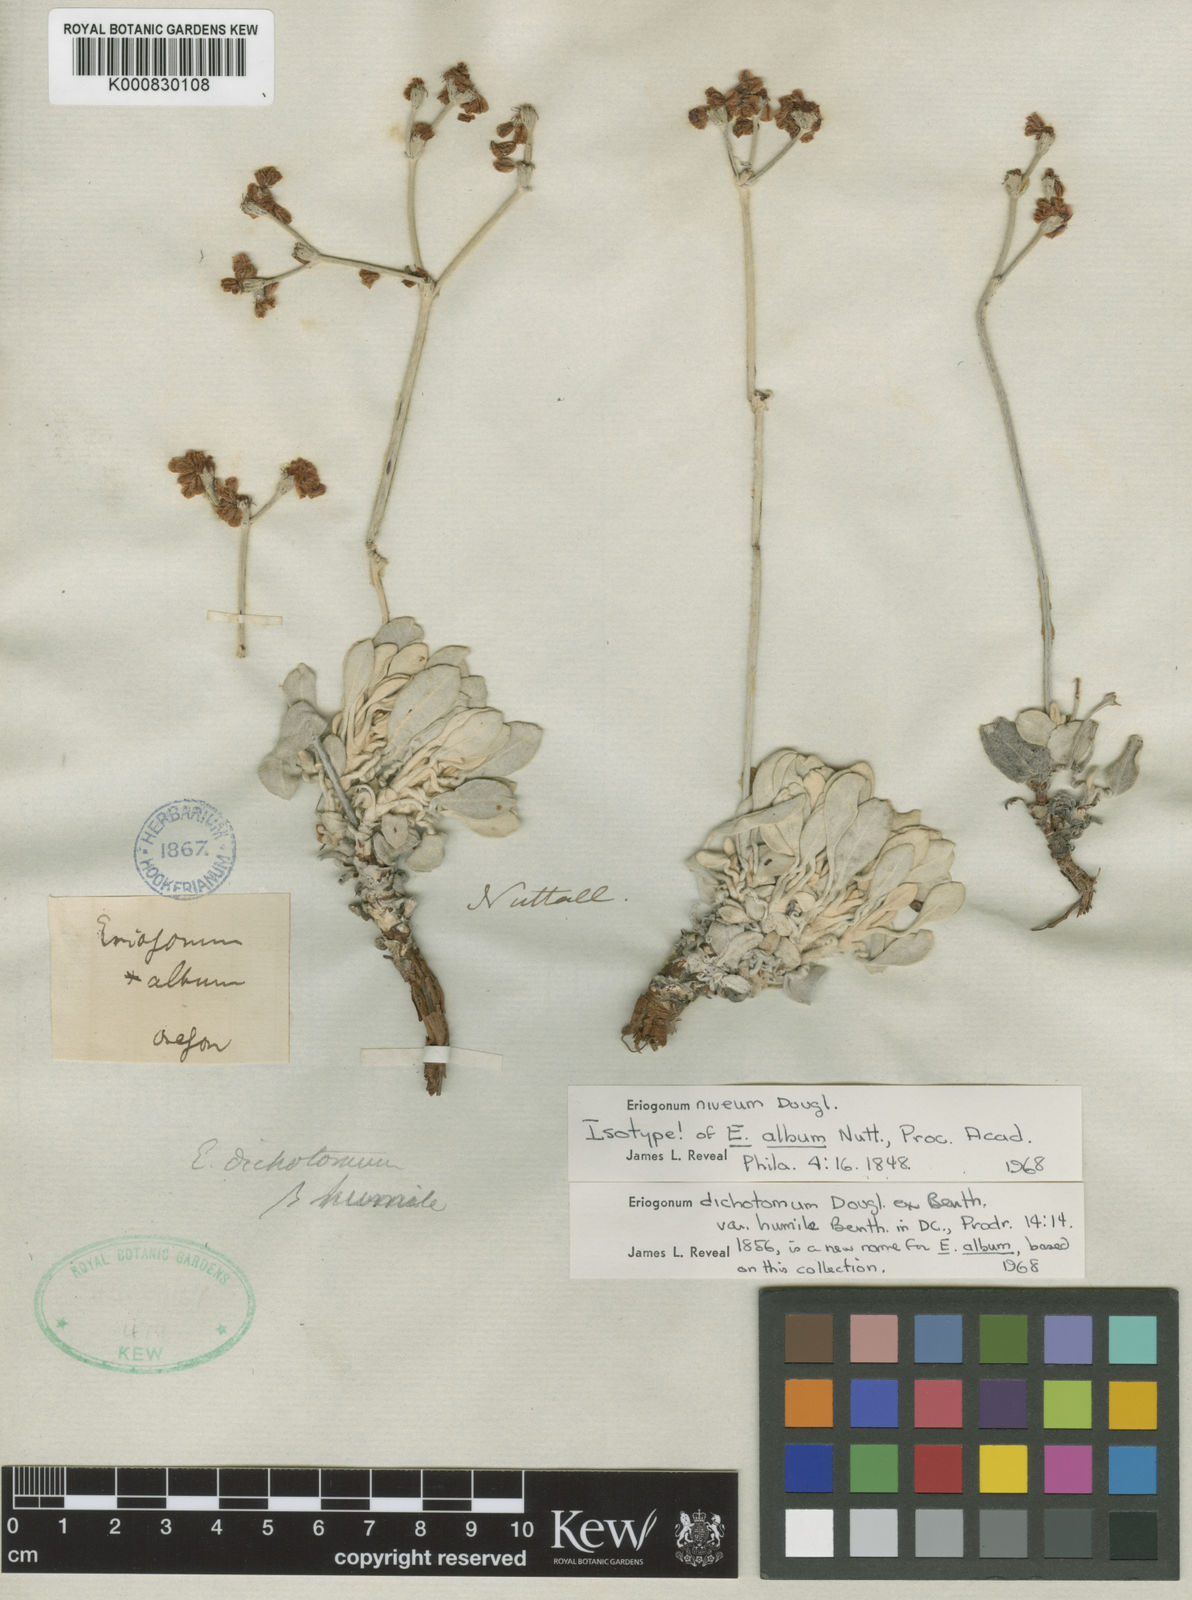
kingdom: Plantae
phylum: Tracheophyta
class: Magnoliopsida
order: Caryophyllales
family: Polygonaceae
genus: Eriogonum
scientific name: Eriogonum niveum
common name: Snow wild buckwheat
